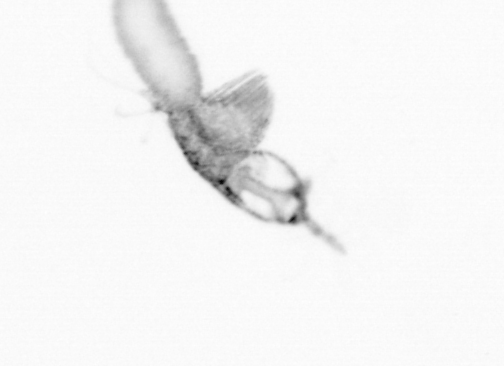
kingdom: Animalia
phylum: Arthropoda
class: Copepoda
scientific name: Copepoda
